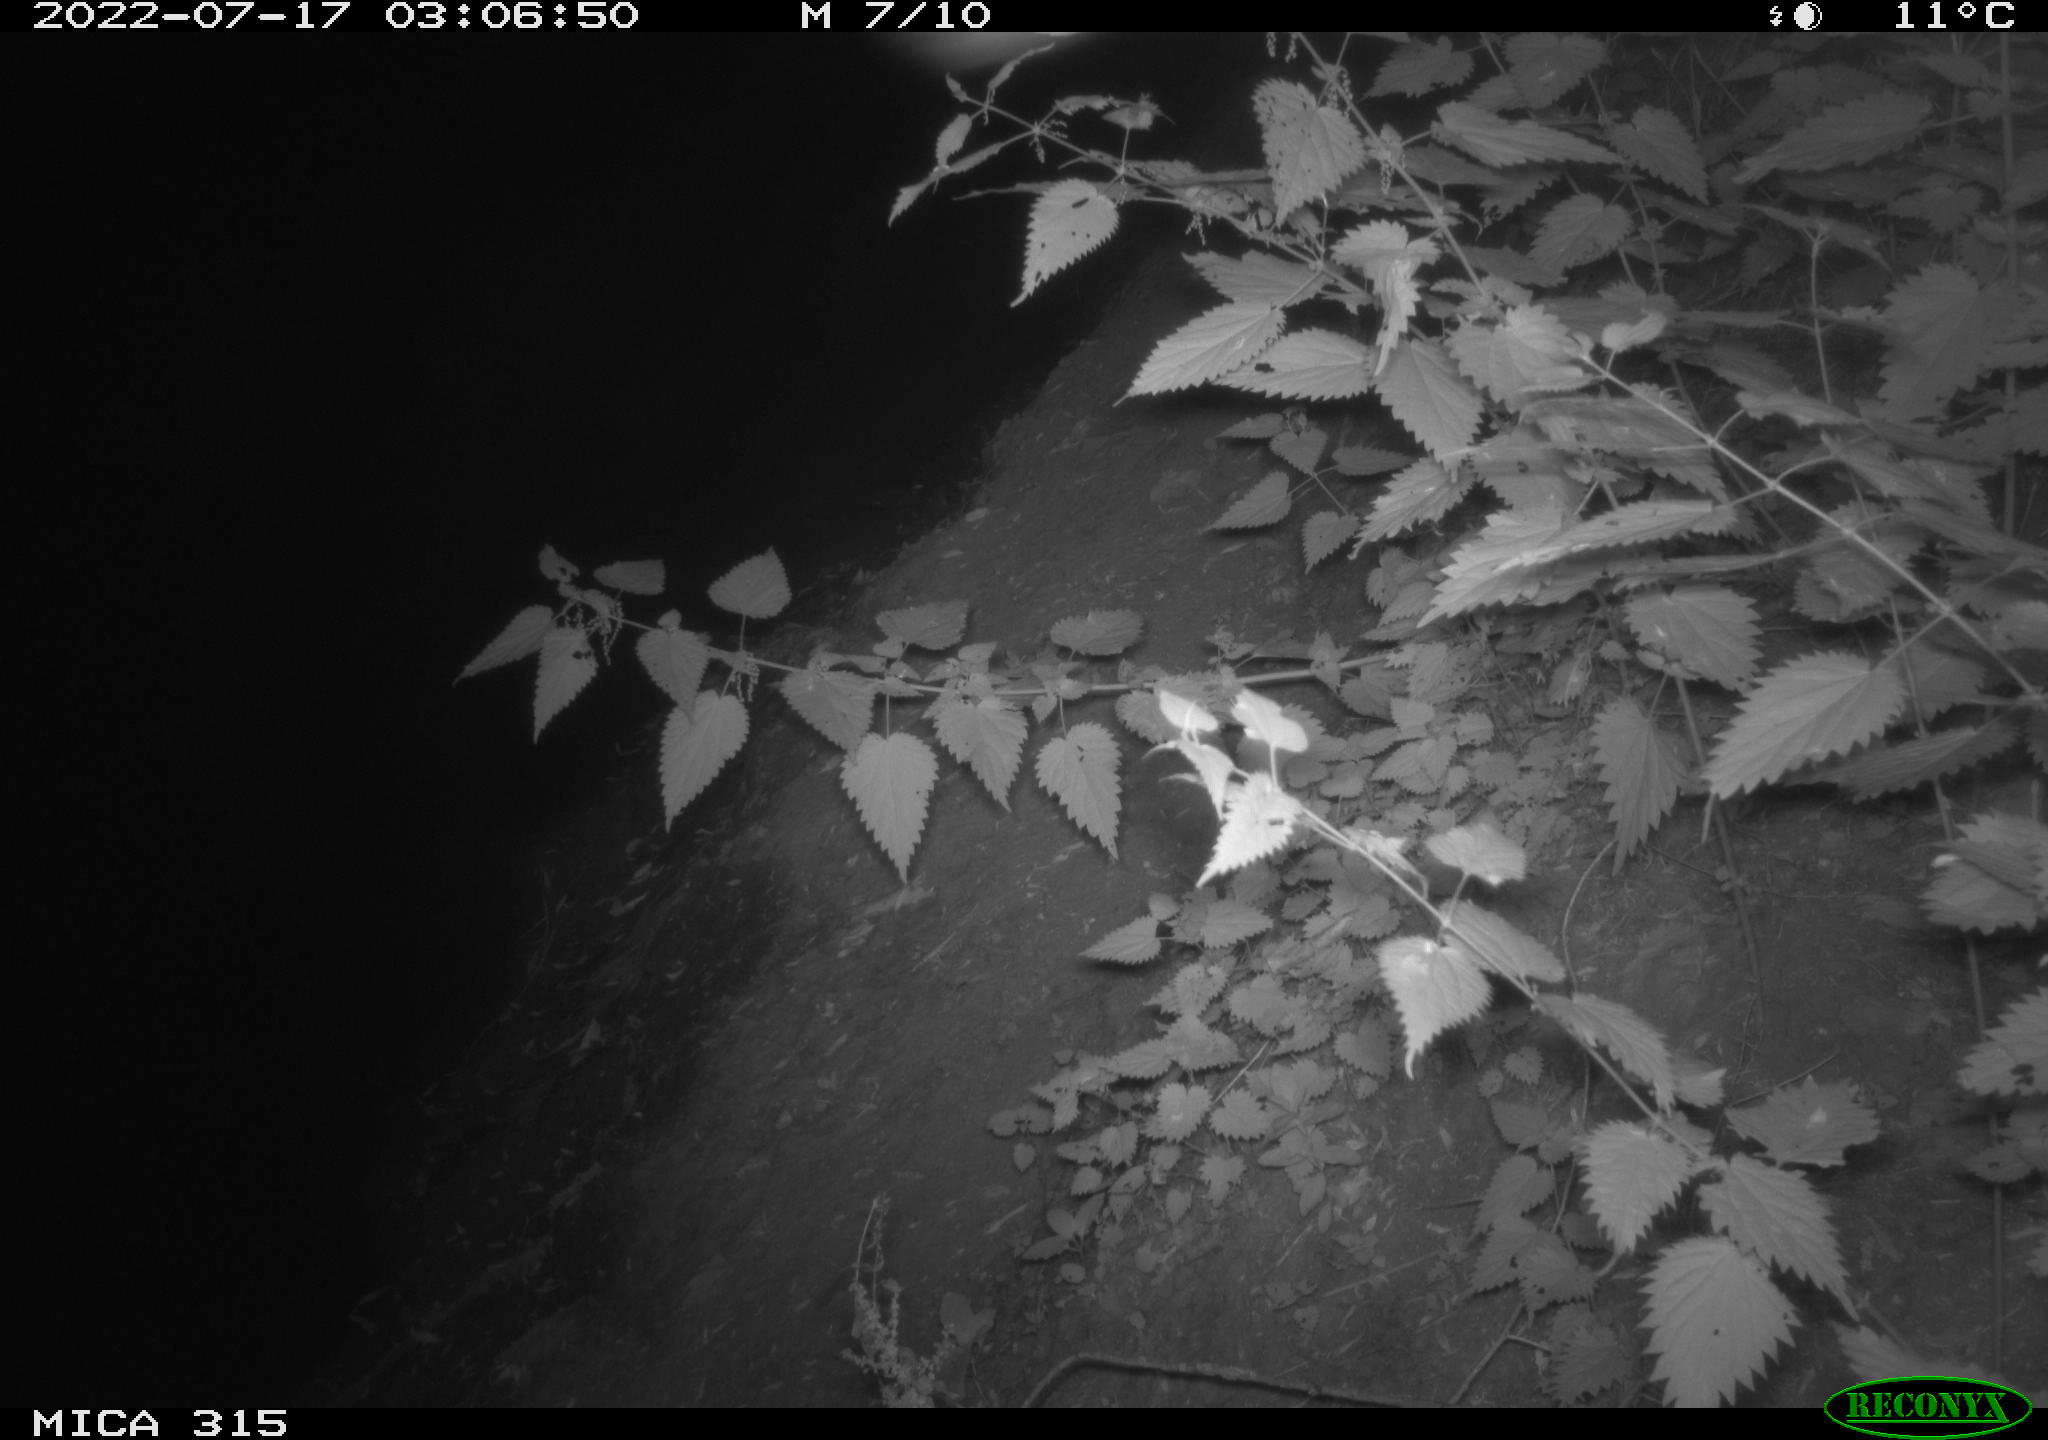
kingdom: Animalia
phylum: Chordata
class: Mammalia
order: Carnivora
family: Canidae
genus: Vulpes
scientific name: Vulpes vulpes
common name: Red fox
